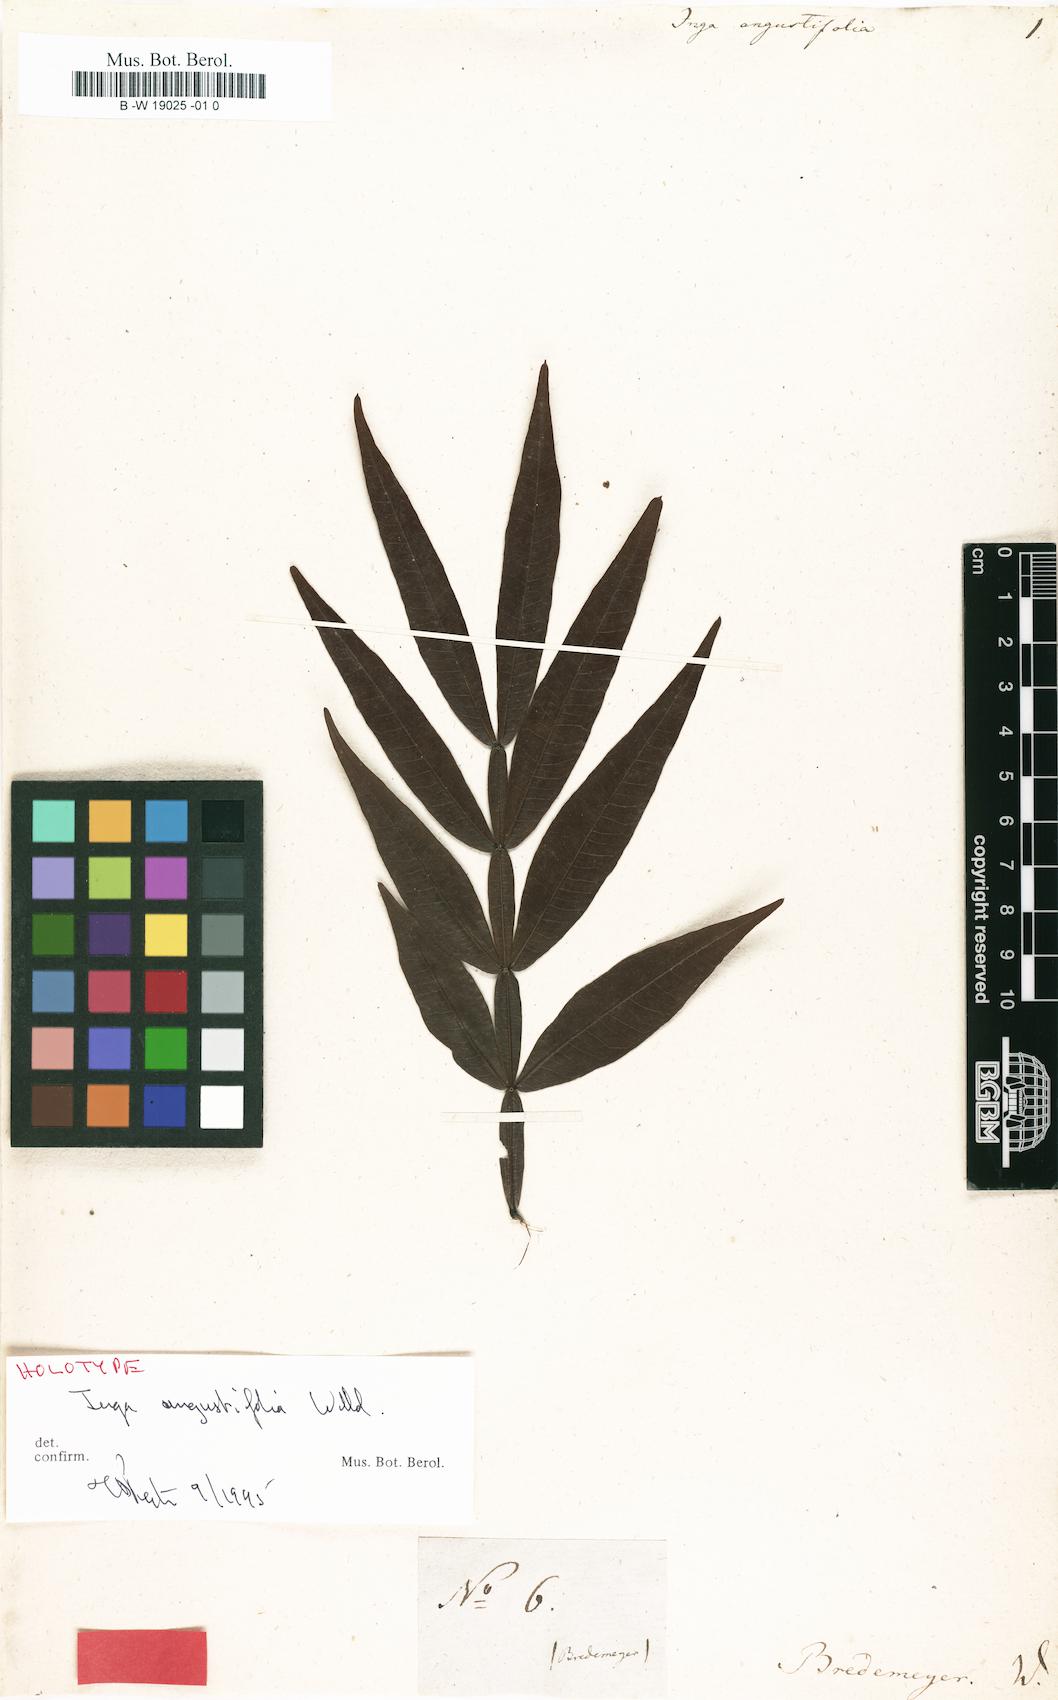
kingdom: Plantae
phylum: Tracheophyta
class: Magnoliopsida
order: Fabales
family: Fabaceae
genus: Inga
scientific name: Inga acuminata
